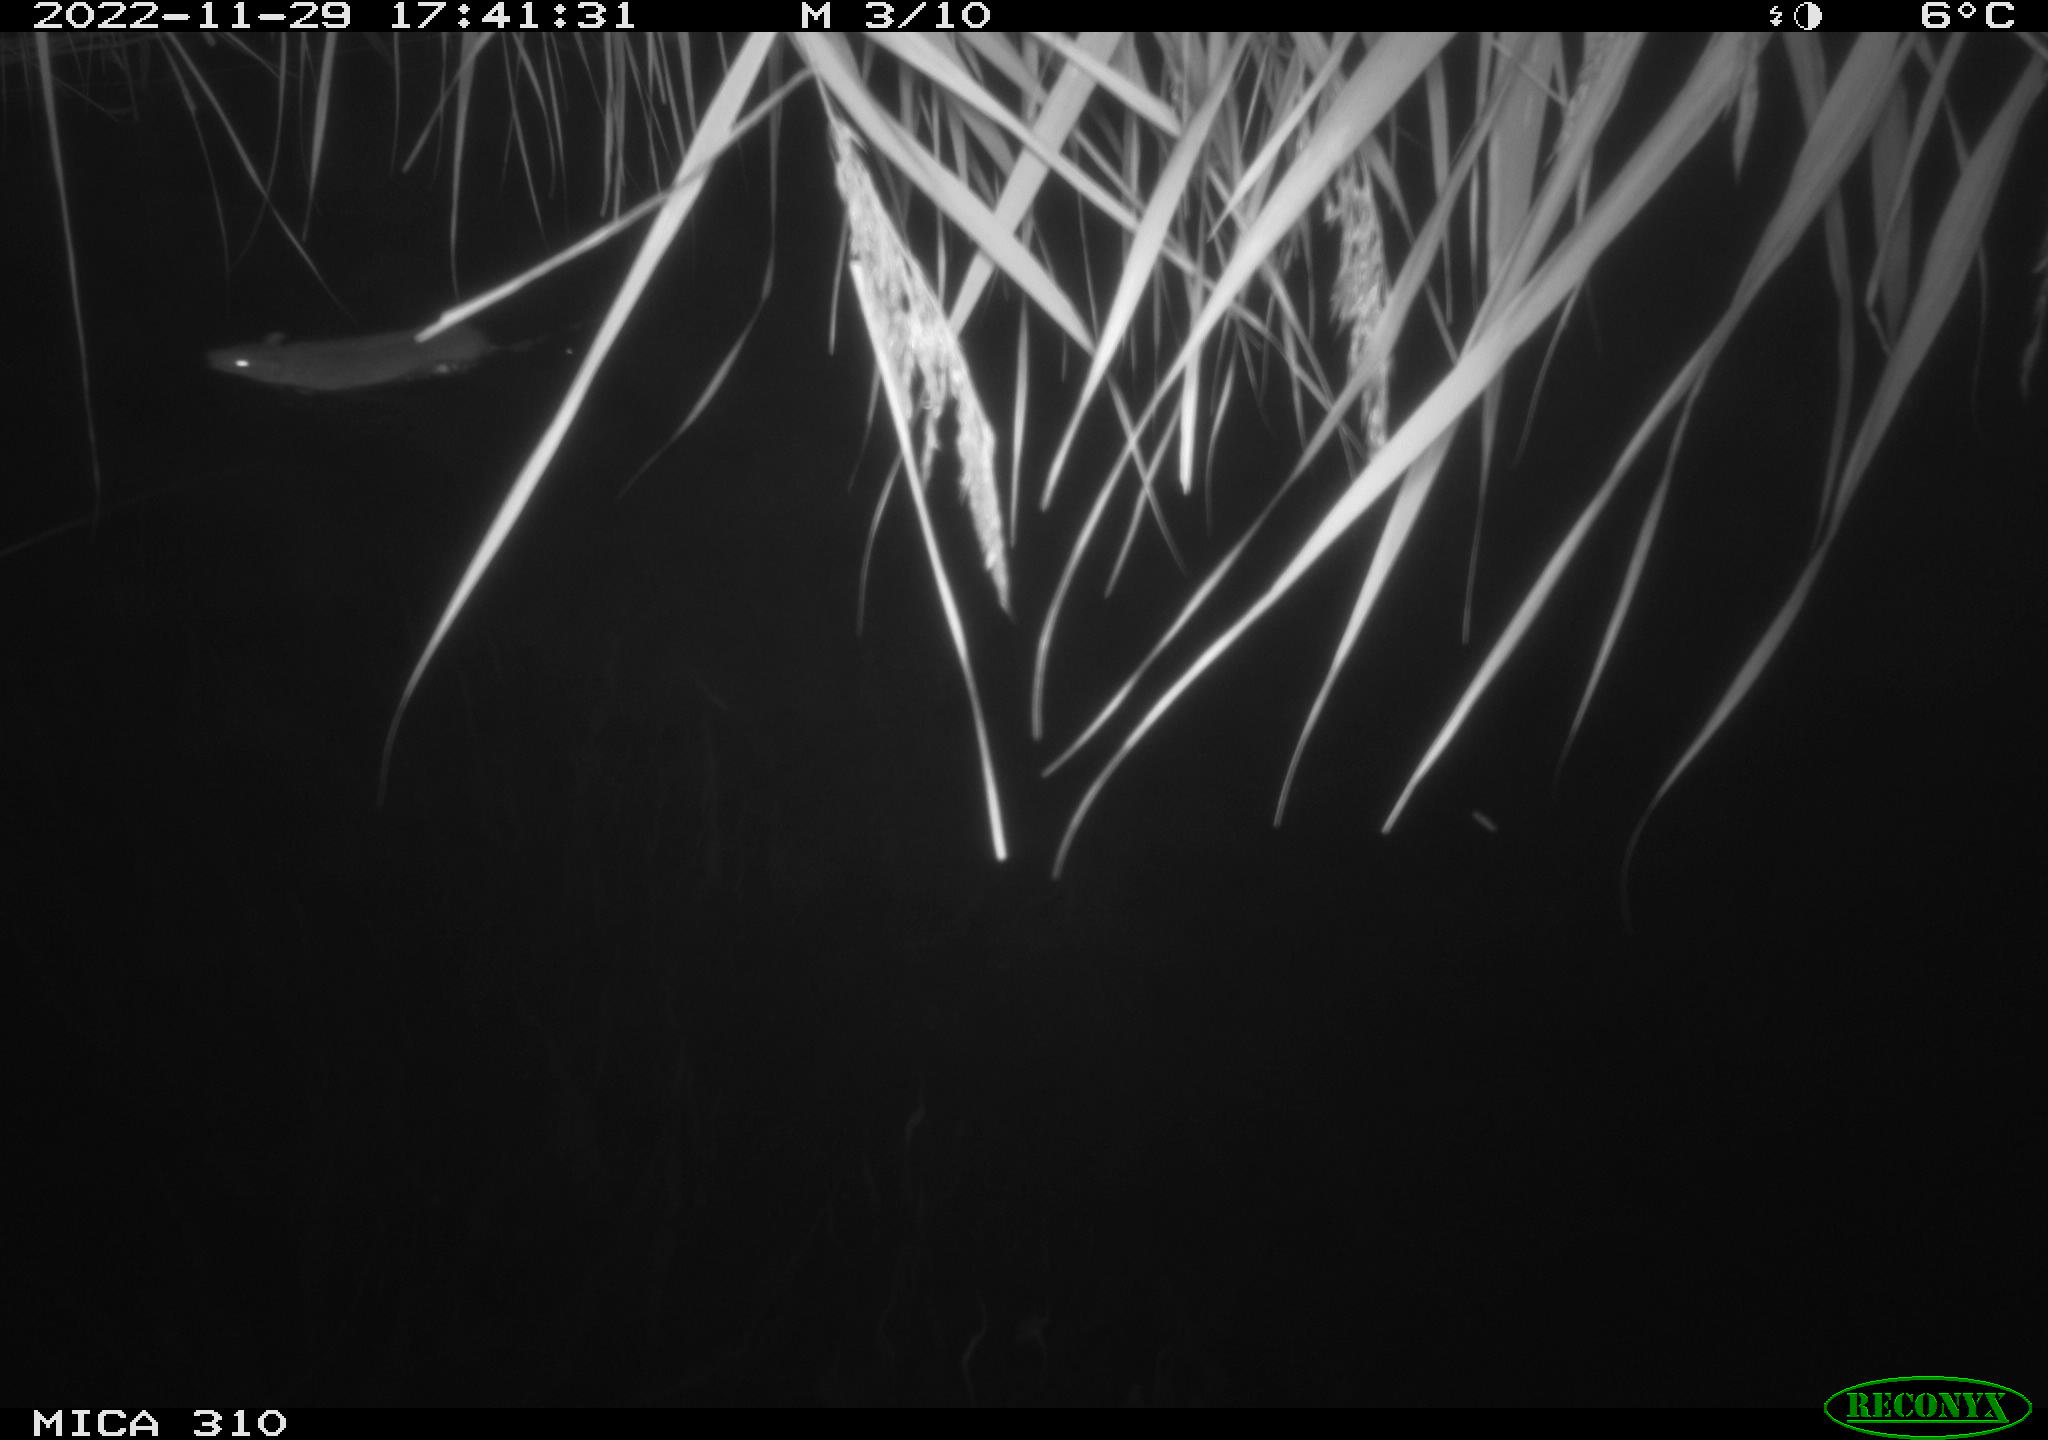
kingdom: Animalia
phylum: Chordata
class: Mammalia
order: Rodentia
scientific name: Rodentia
